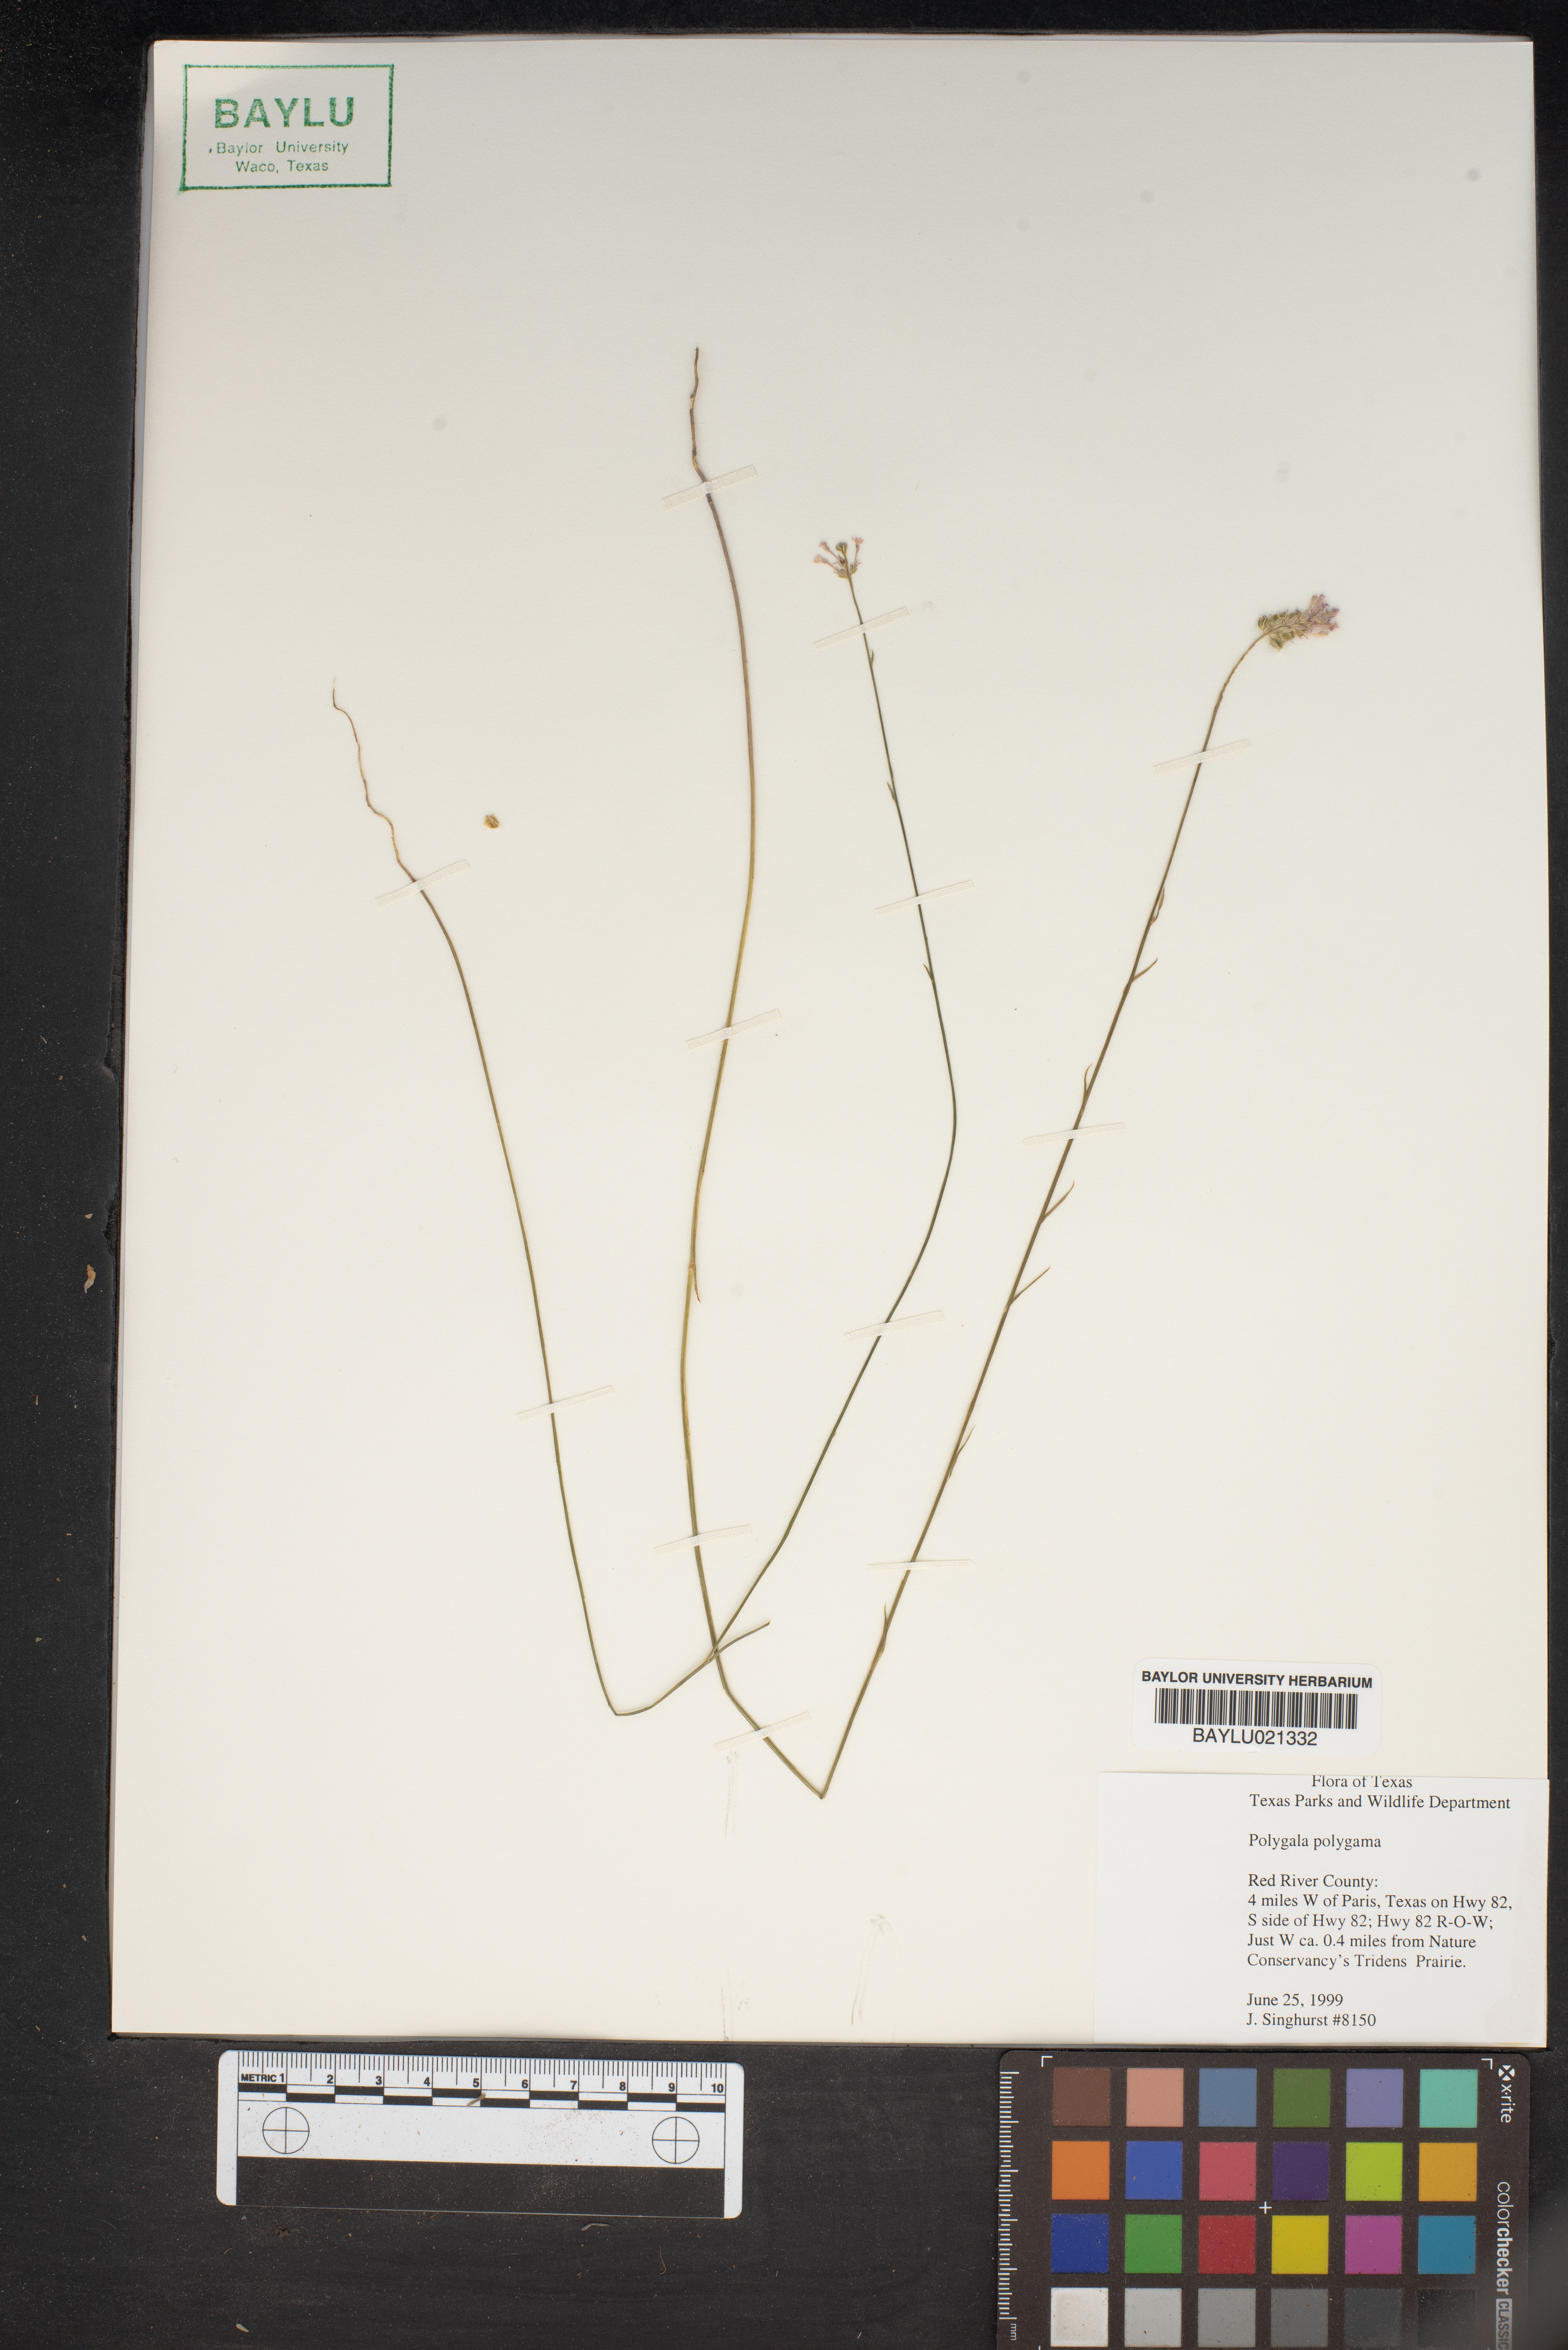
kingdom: Plantae
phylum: Tracheophyta
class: Magnoliopsida
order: Fabales
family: Polygalaceae
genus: Polygala
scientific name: Polygala polygama
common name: Bitter milkwort
